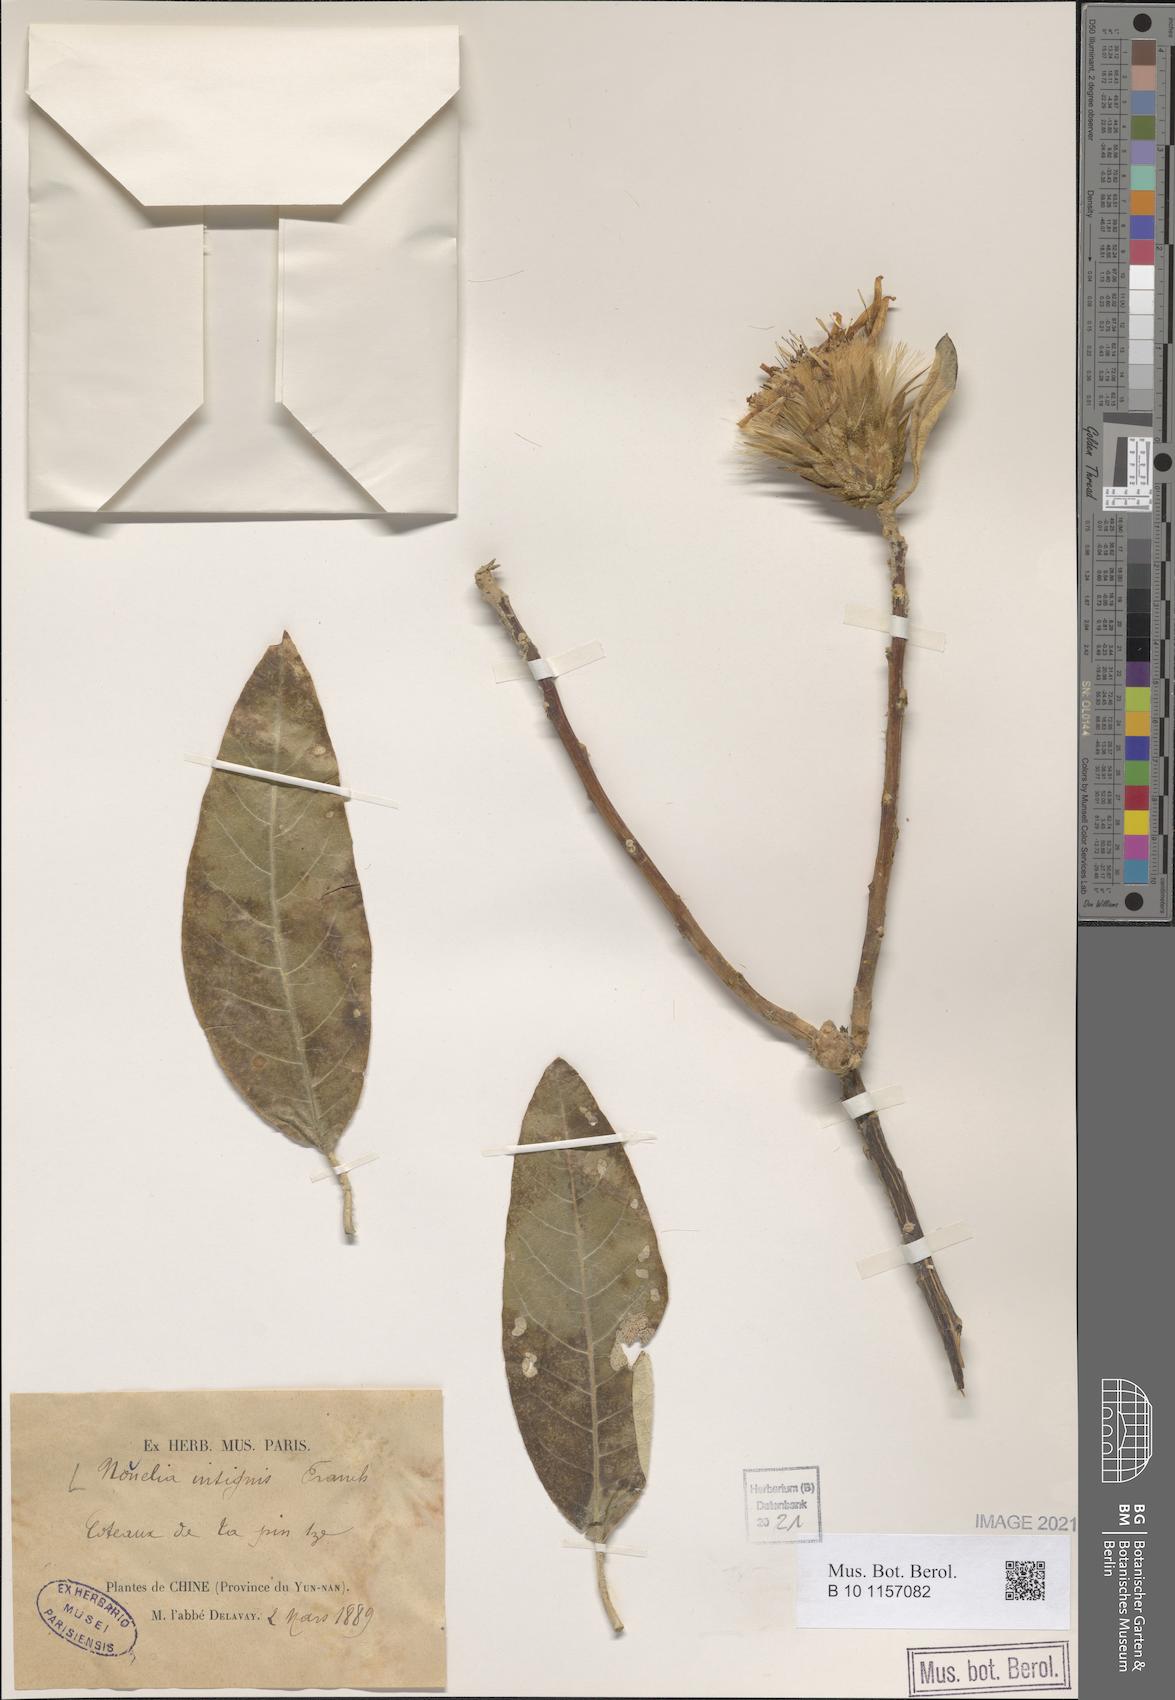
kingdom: Plantae
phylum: Tracheophyta
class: Magnoliopsida
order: Asterales
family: Asteraceae
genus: Nouelia
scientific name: Nouelia insignis
